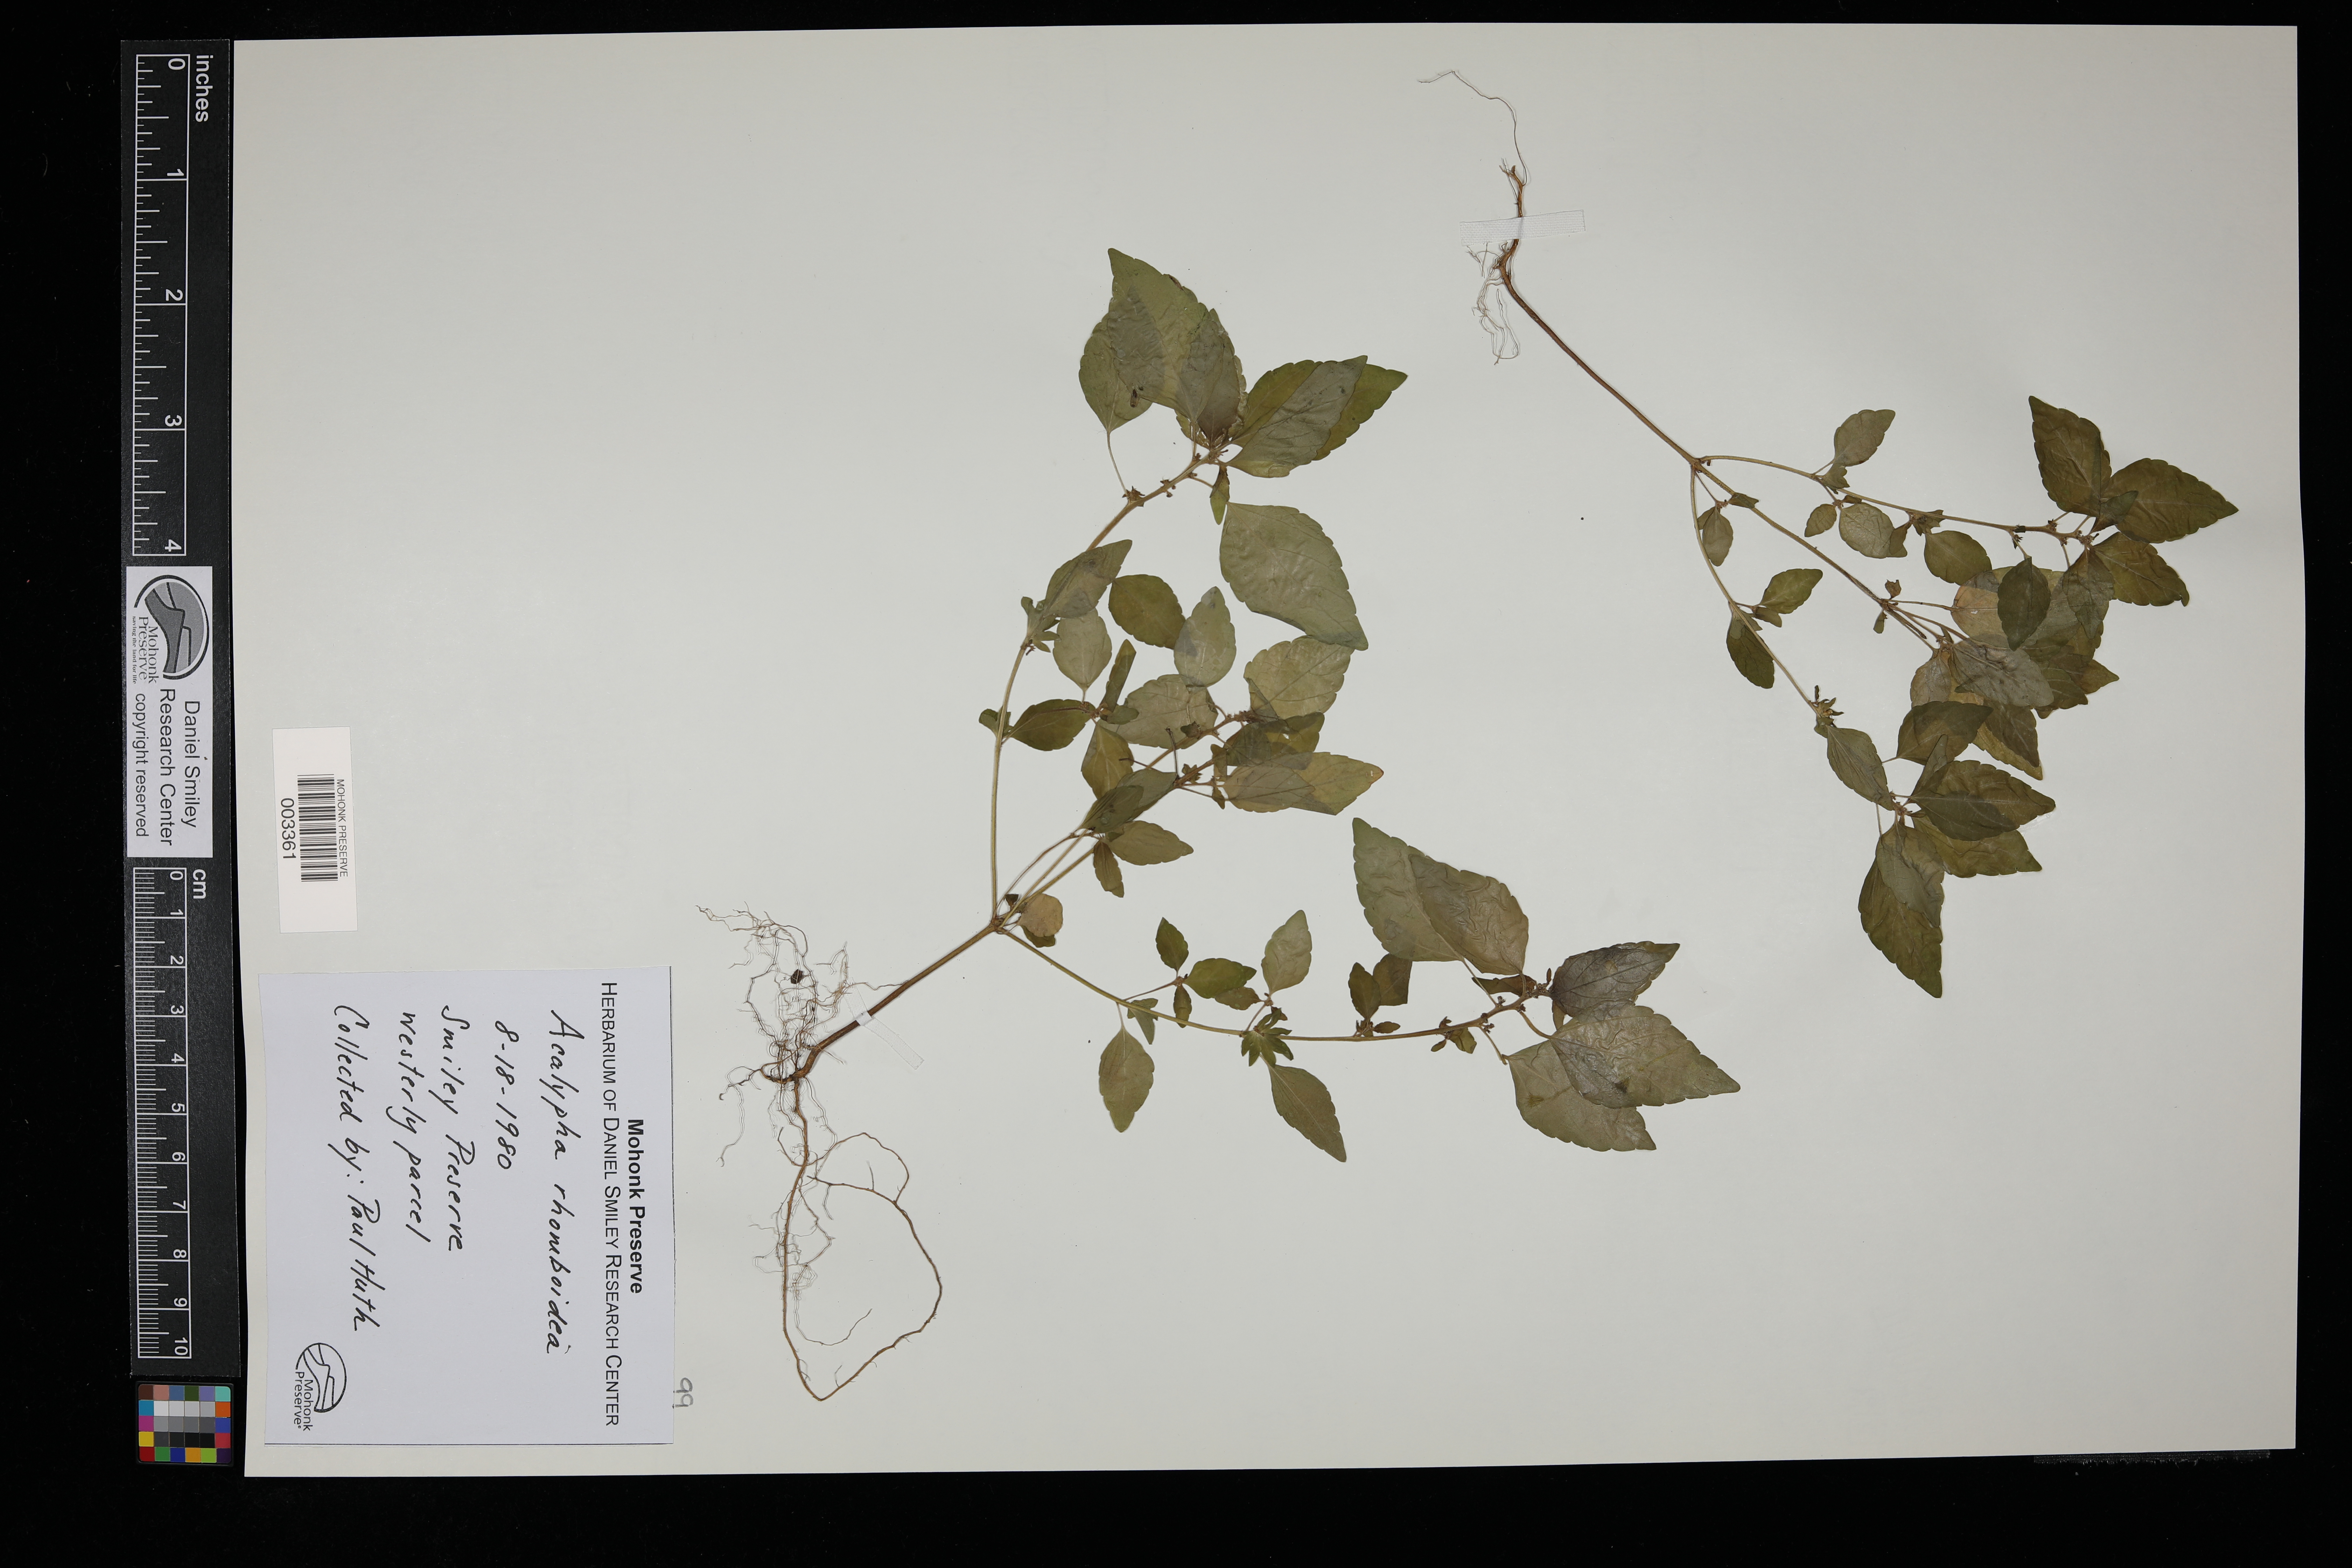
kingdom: Plantae
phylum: Tracheophyta
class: Magnoliopsida
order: Malpighiales
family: Euphorbiaceae
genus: Acalypha
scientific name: Acalypha rhomboidea
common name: Rhombic copperleaf
